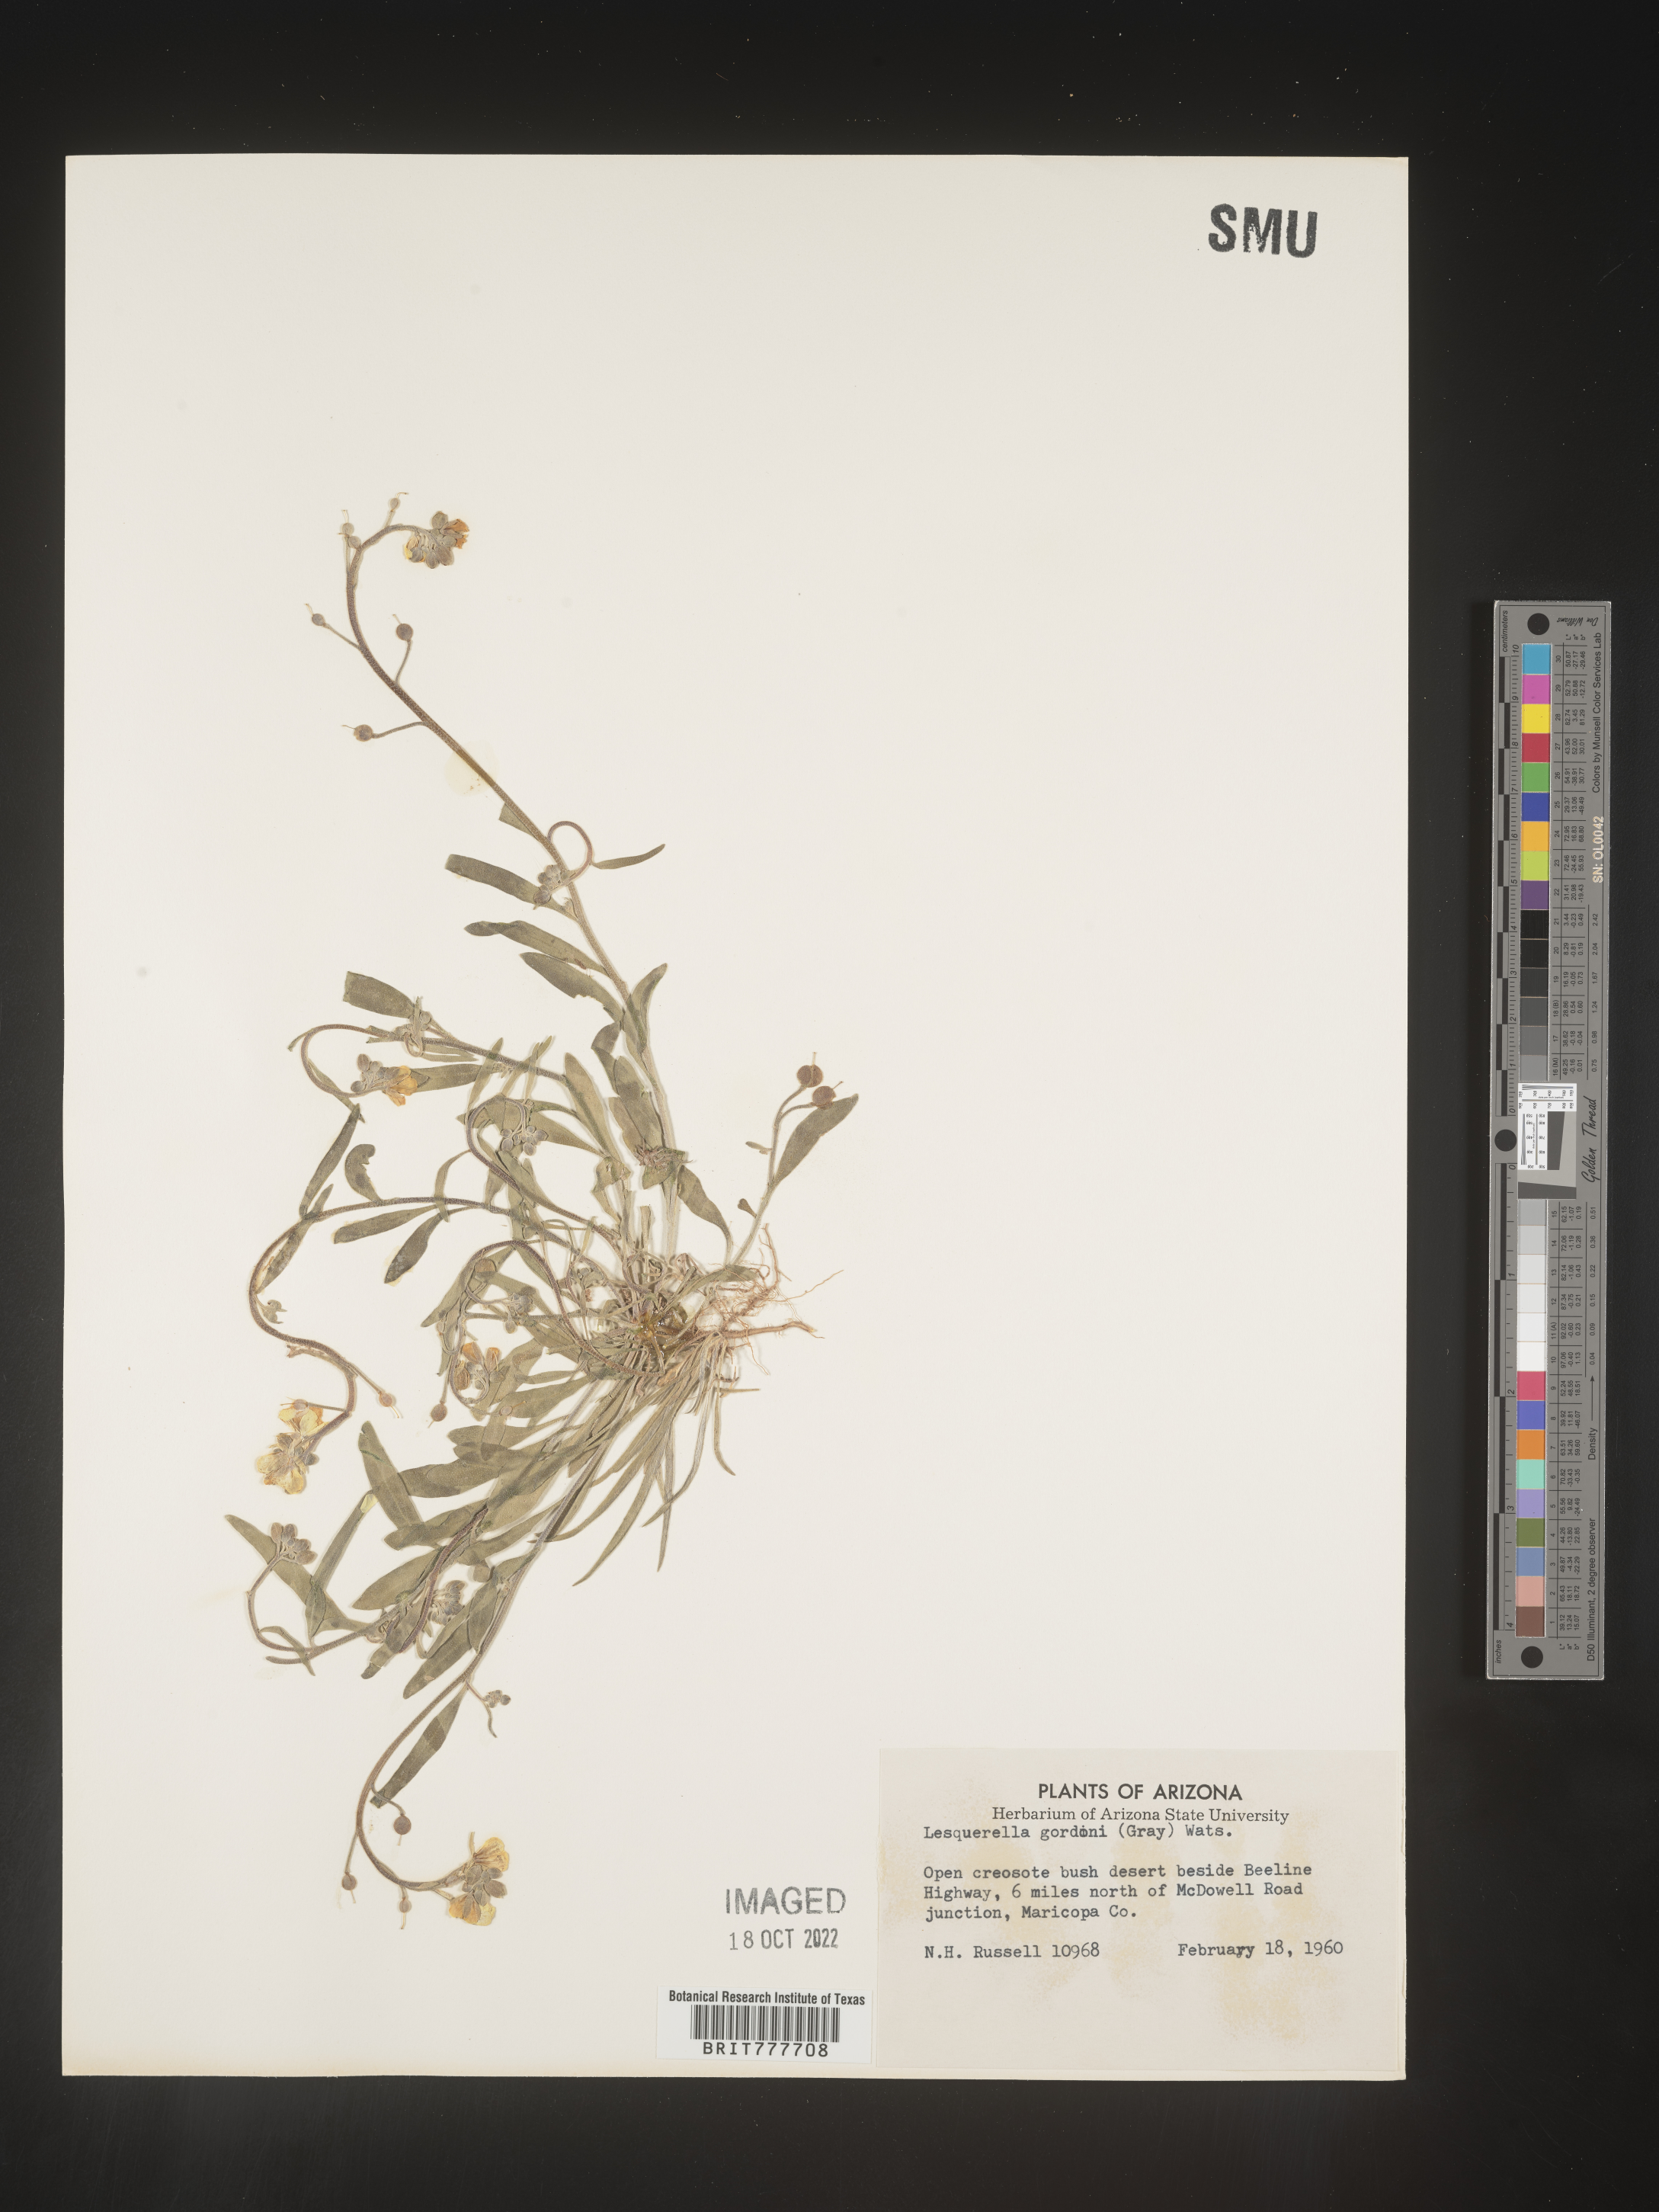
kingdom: Chromista
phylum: Cercozoa
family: Psammonobiotidae
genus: Lesquerella
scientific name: Lesquerella
